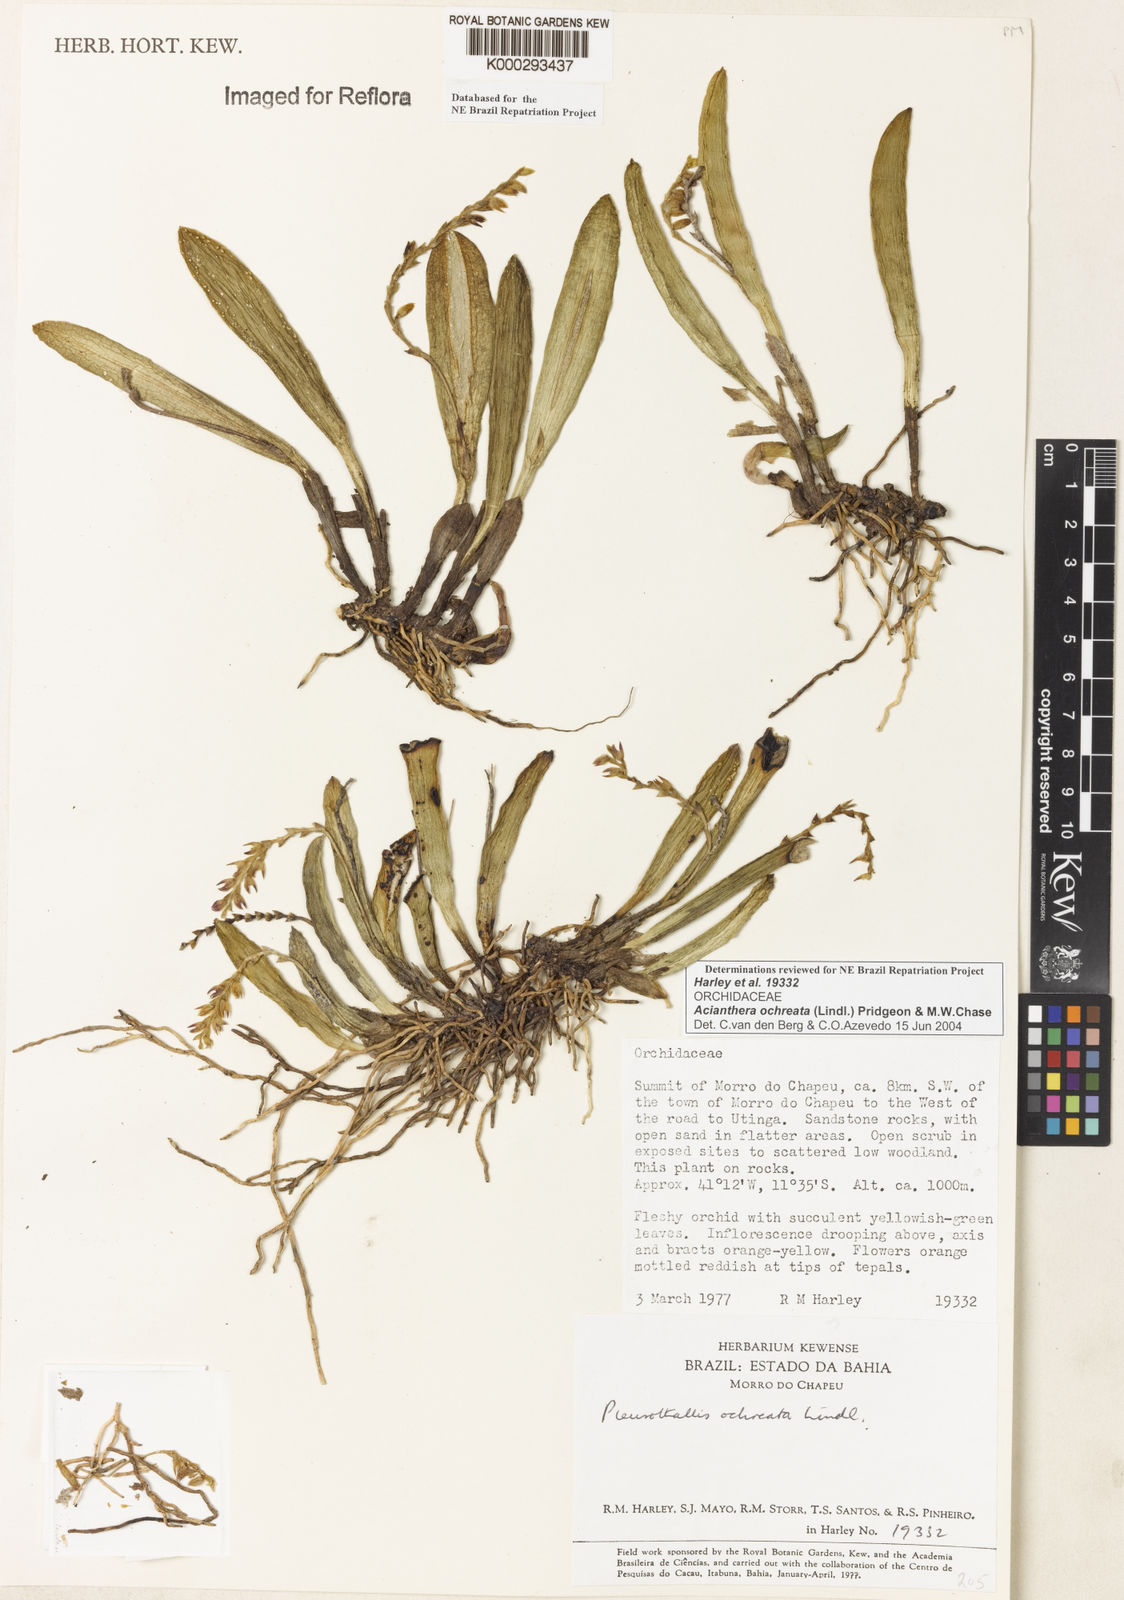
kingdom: Plantae
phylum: Tracheophyta
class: Liliopsida
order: Asparagales
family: Orchidaceae
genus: Acianthera
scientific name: Acianthera ochreata
